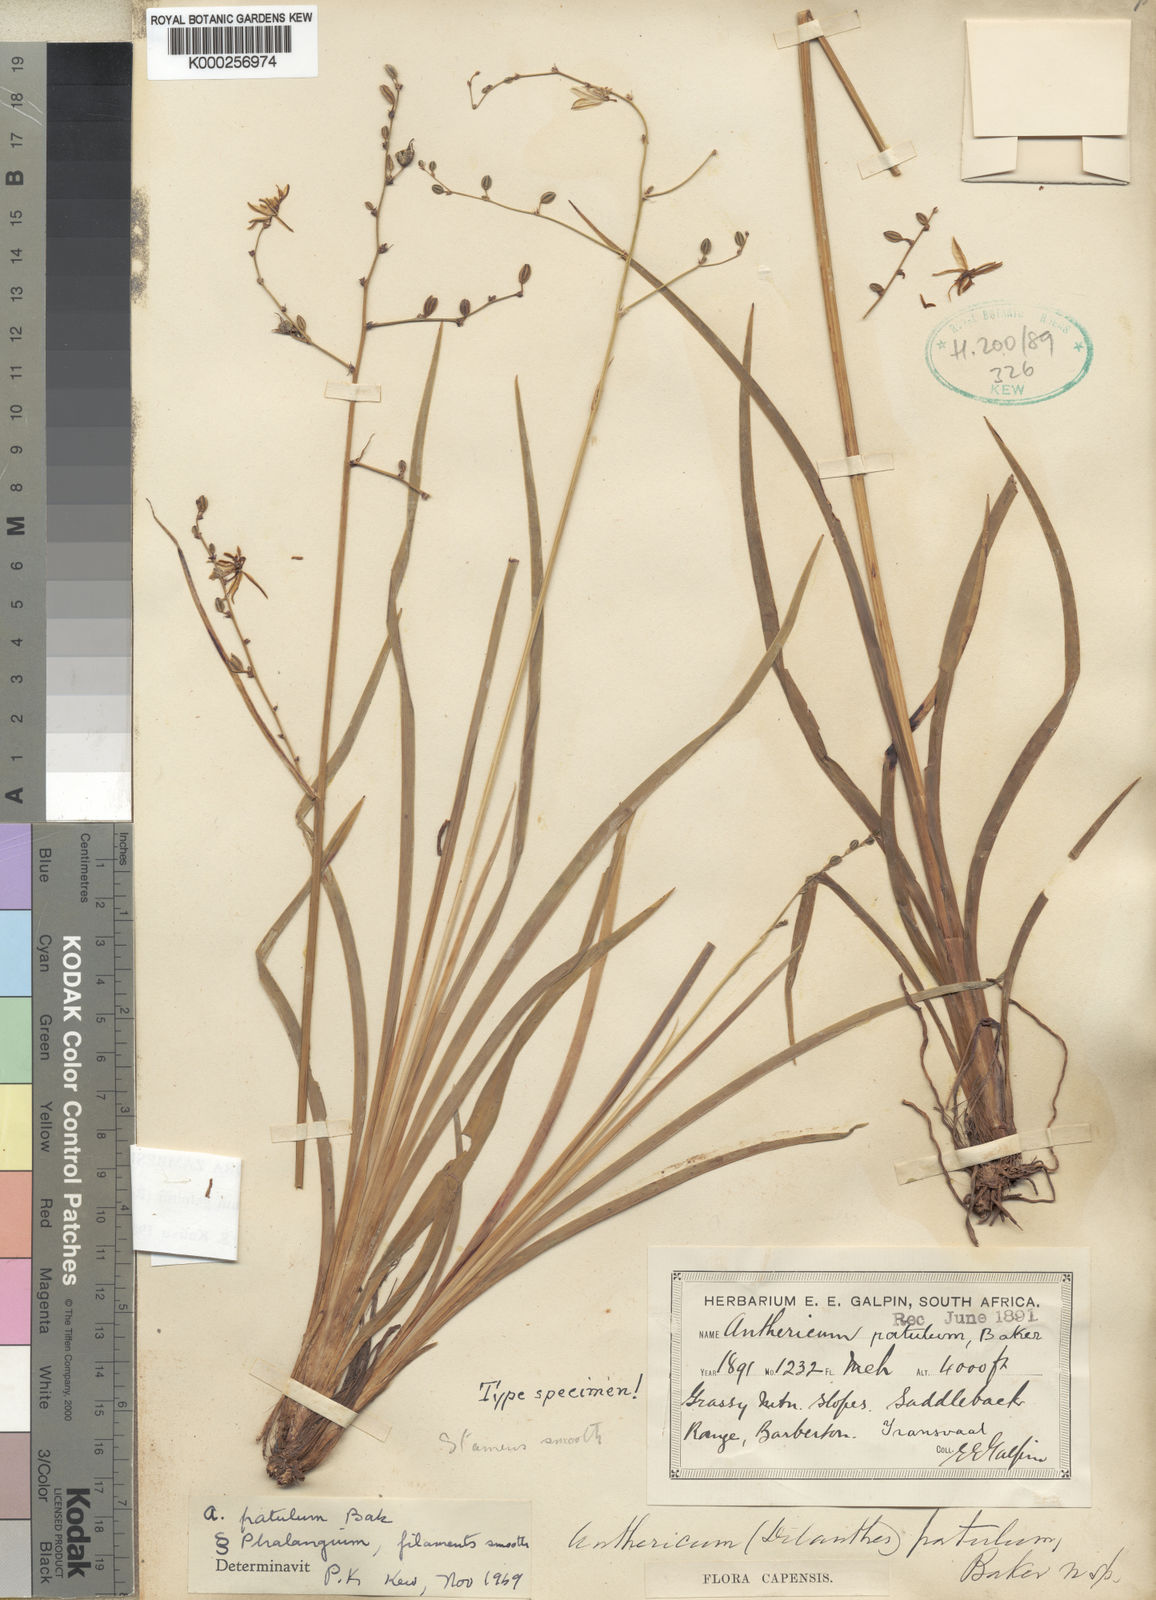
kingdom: Plantae
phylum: Tracheophyta
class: Liliopsida
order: Asparagales
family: Asparagaceae
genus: Chlorophytum
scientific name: Chlorophytum galpinii
